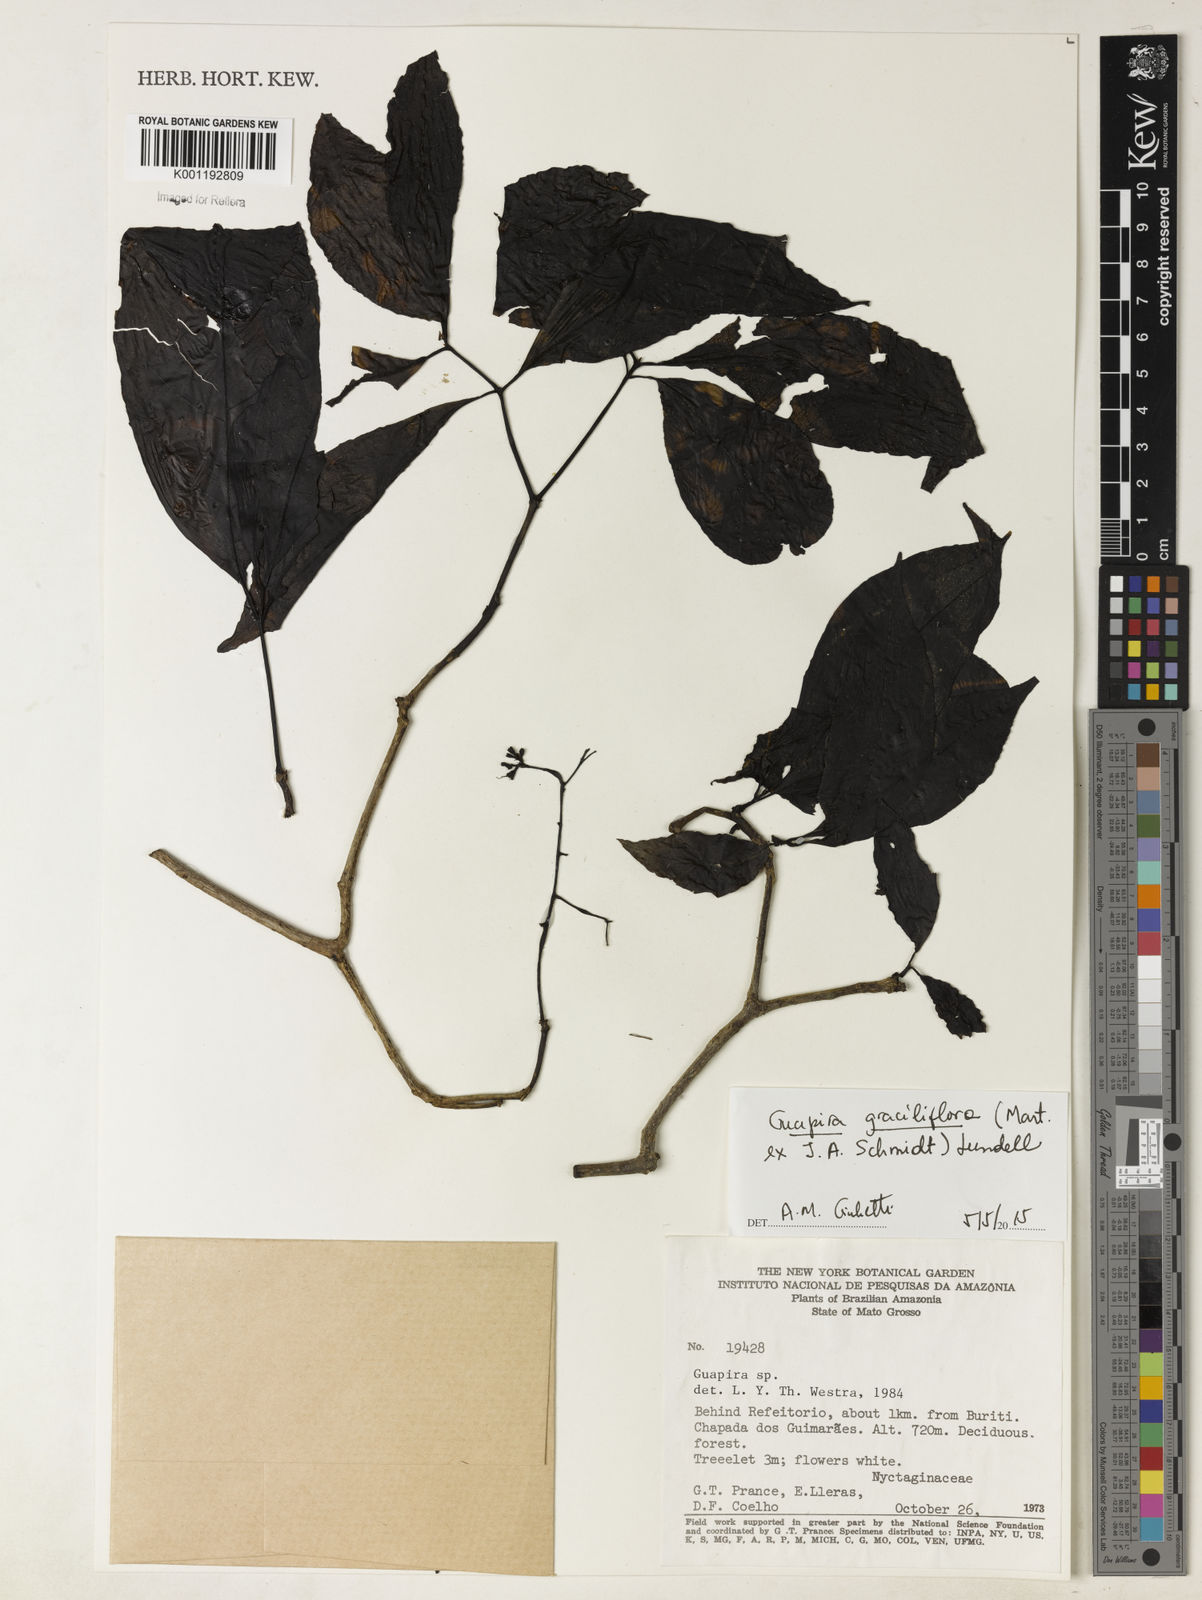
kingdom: Plantae
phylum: Tracheophyta
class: Magnoliopsida
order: Caryophyllales
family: Nyctaginaceae
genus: Guapira
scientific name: Guapira graciliflora
